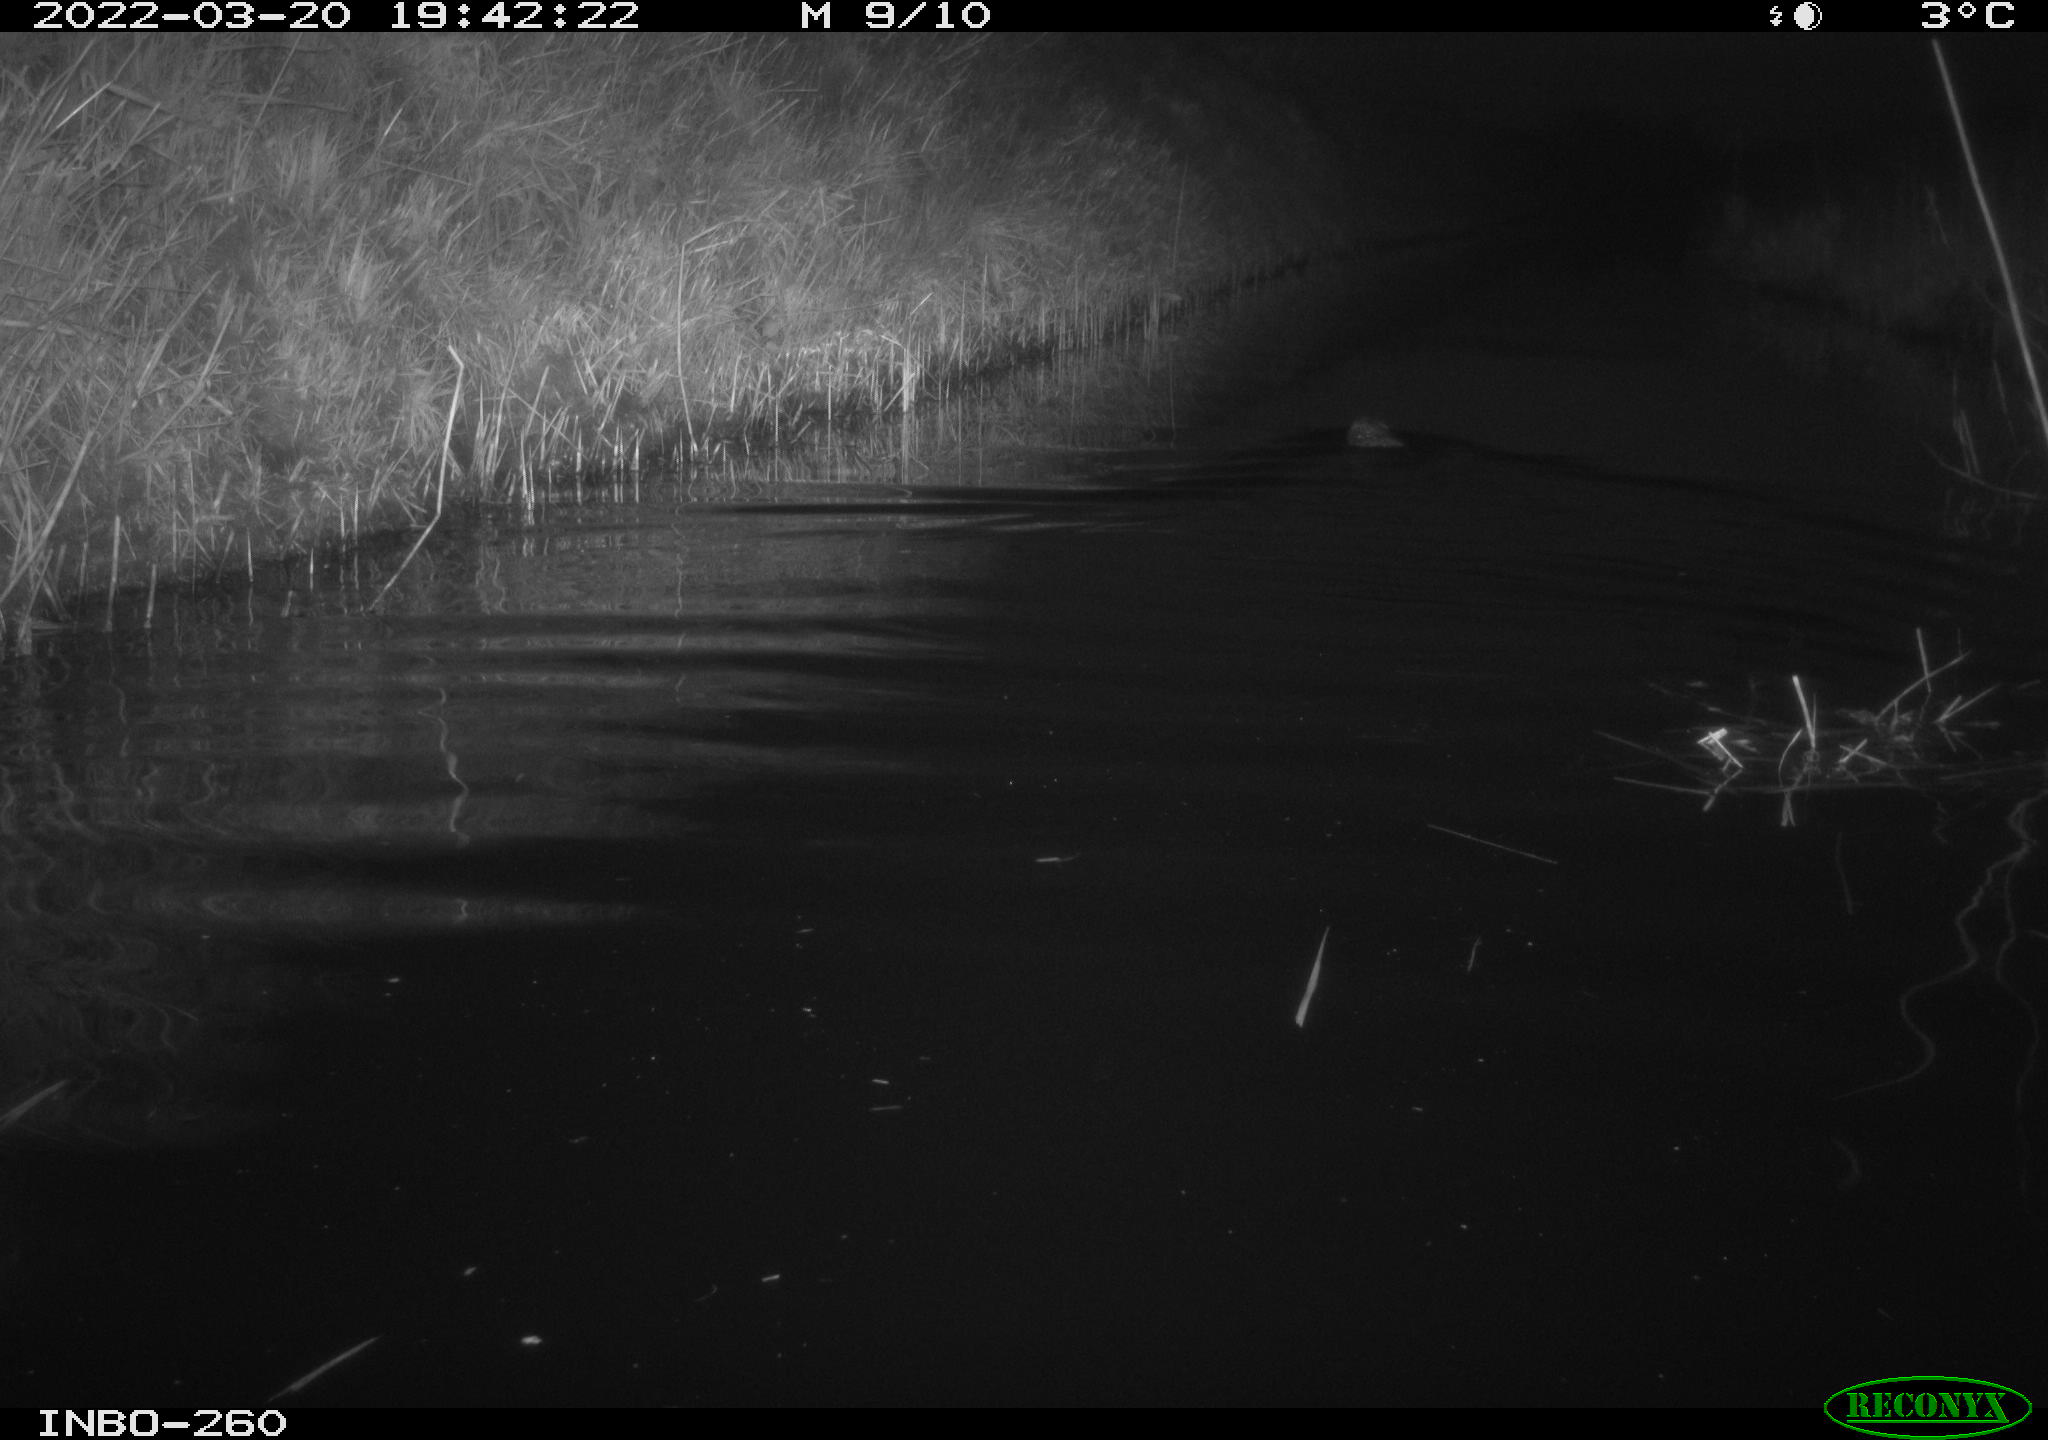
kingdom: Animalia
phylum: Chordata
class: Mammalia
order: Rodentia
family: Cricetidae
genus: Ondatra
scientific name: Ondatra zibethicus
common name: Muskrat
